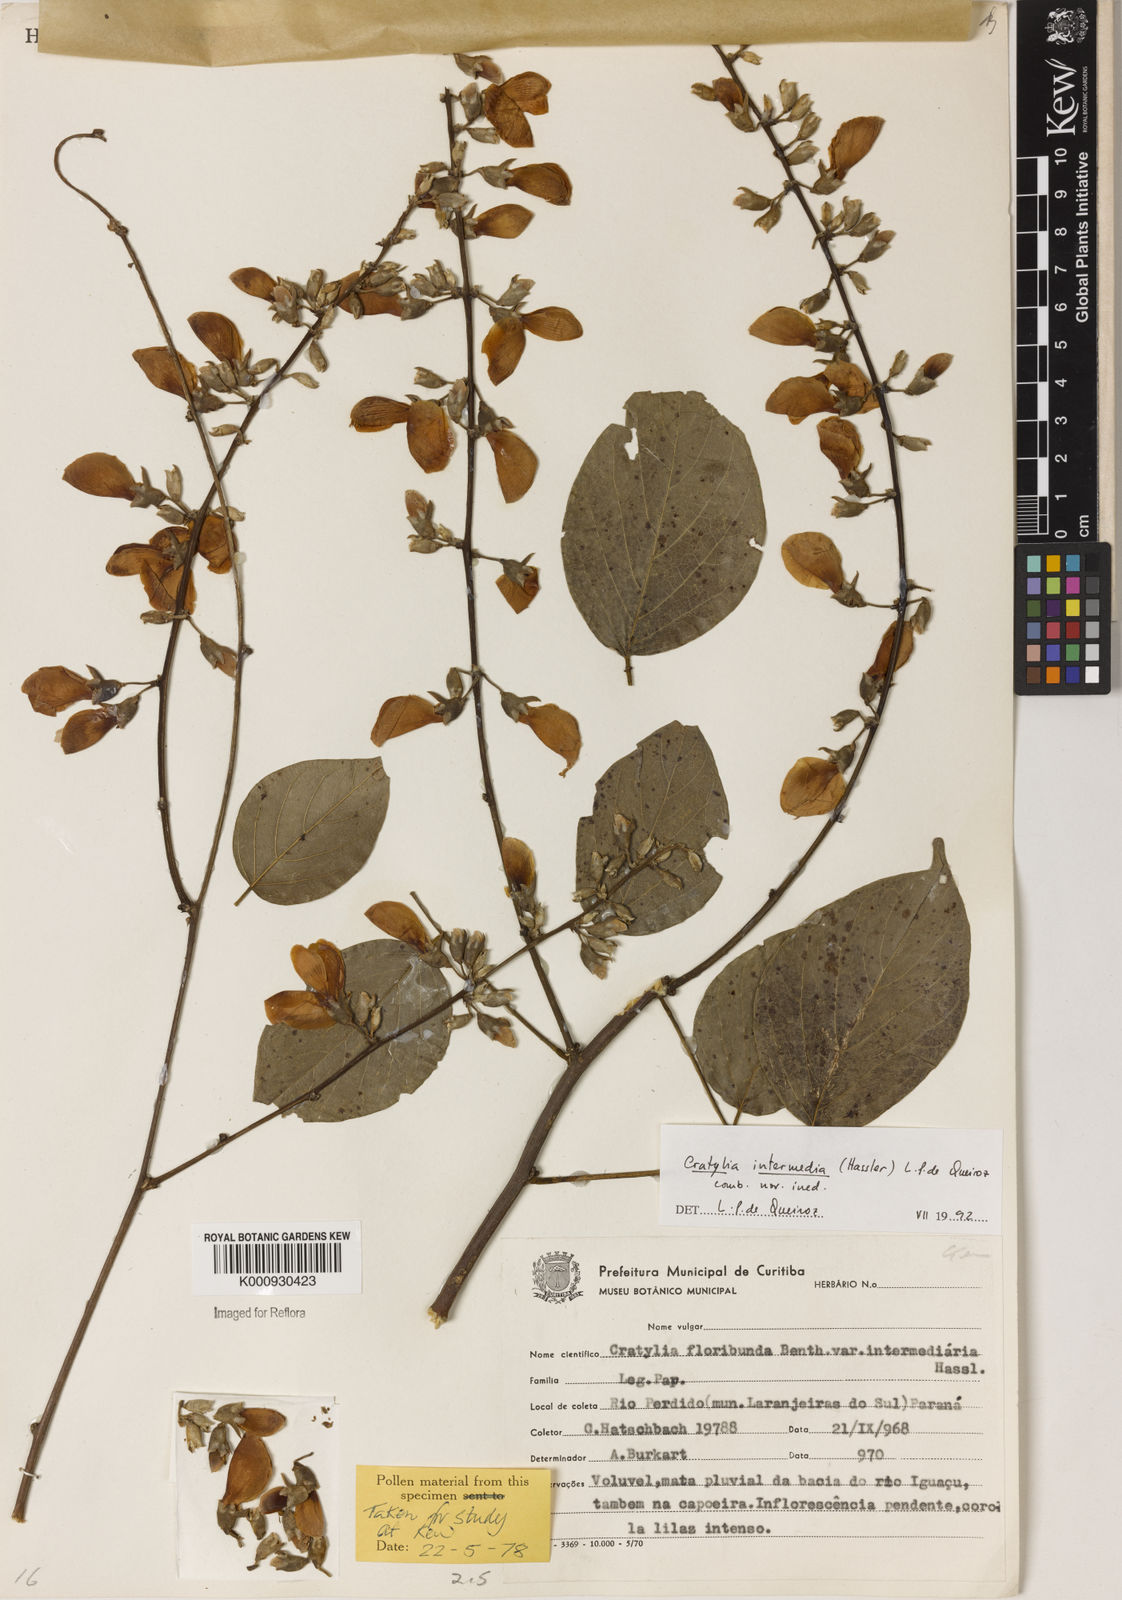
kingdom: Plantae
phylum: Tracheophyta
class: Magnoliopsida
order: Fabales
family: Fabaceae
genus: Cratylia
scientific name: Cratylia intermedia
